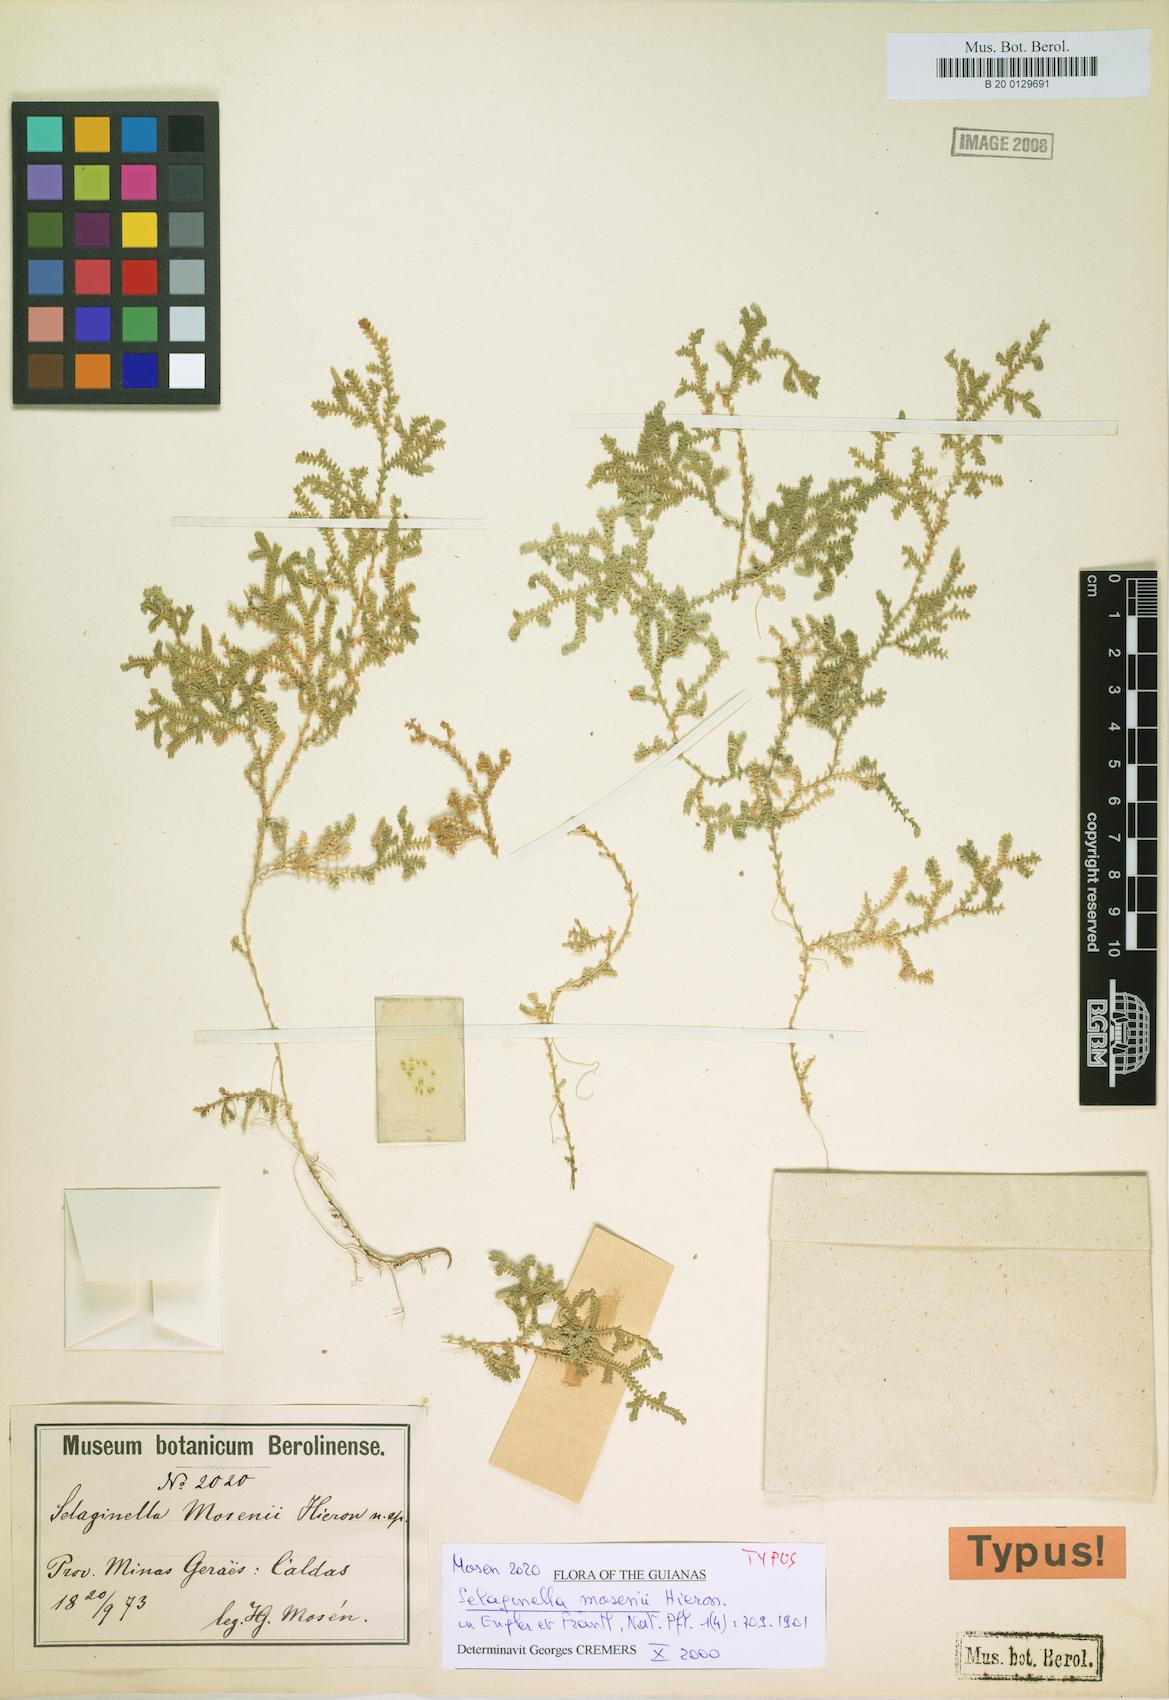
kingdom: Plantae
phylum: Tracheophyta
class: Lycopodiopsida
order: Selaginellales
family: Selaginellaceae
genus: Selaginella
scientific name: Selaginella marginata
